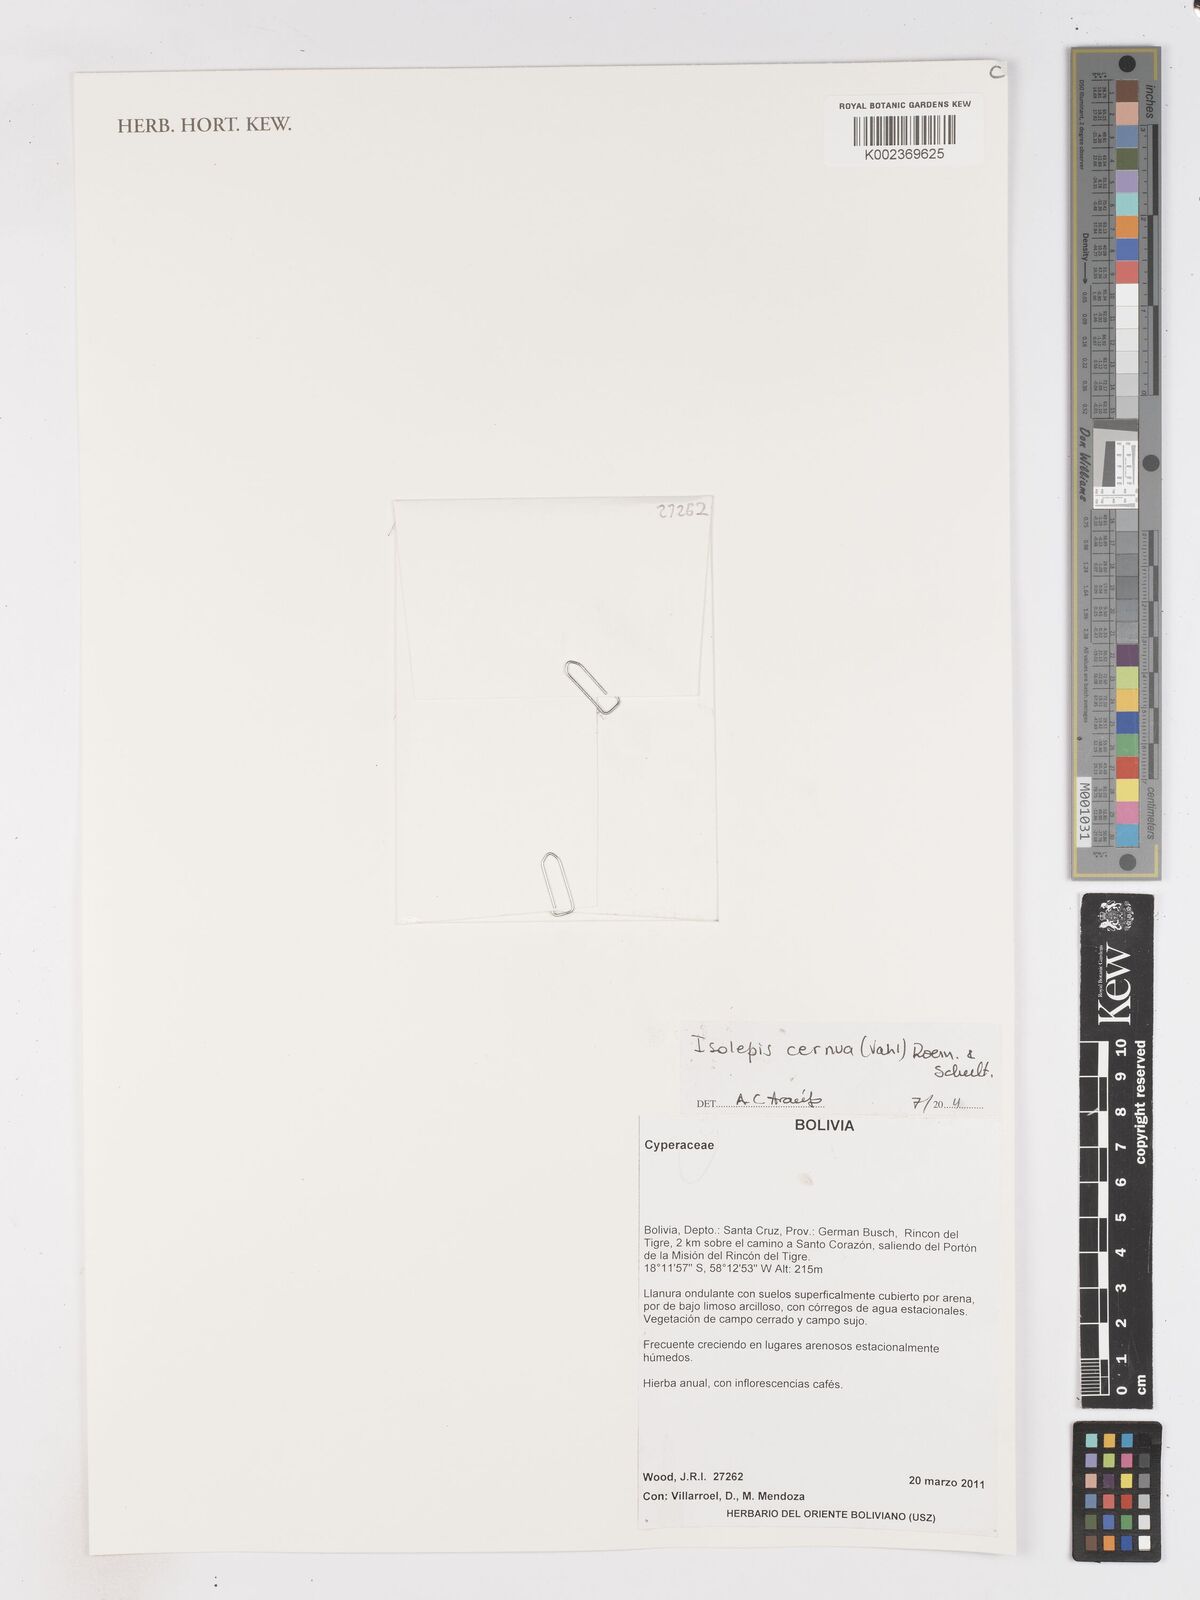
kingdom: Plantae
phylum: Tracheophyta
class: Liliopsida
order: Poales
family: Cyperaceae
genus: Isolepis
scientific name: Isolepis cernua
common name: Slender club-rush
